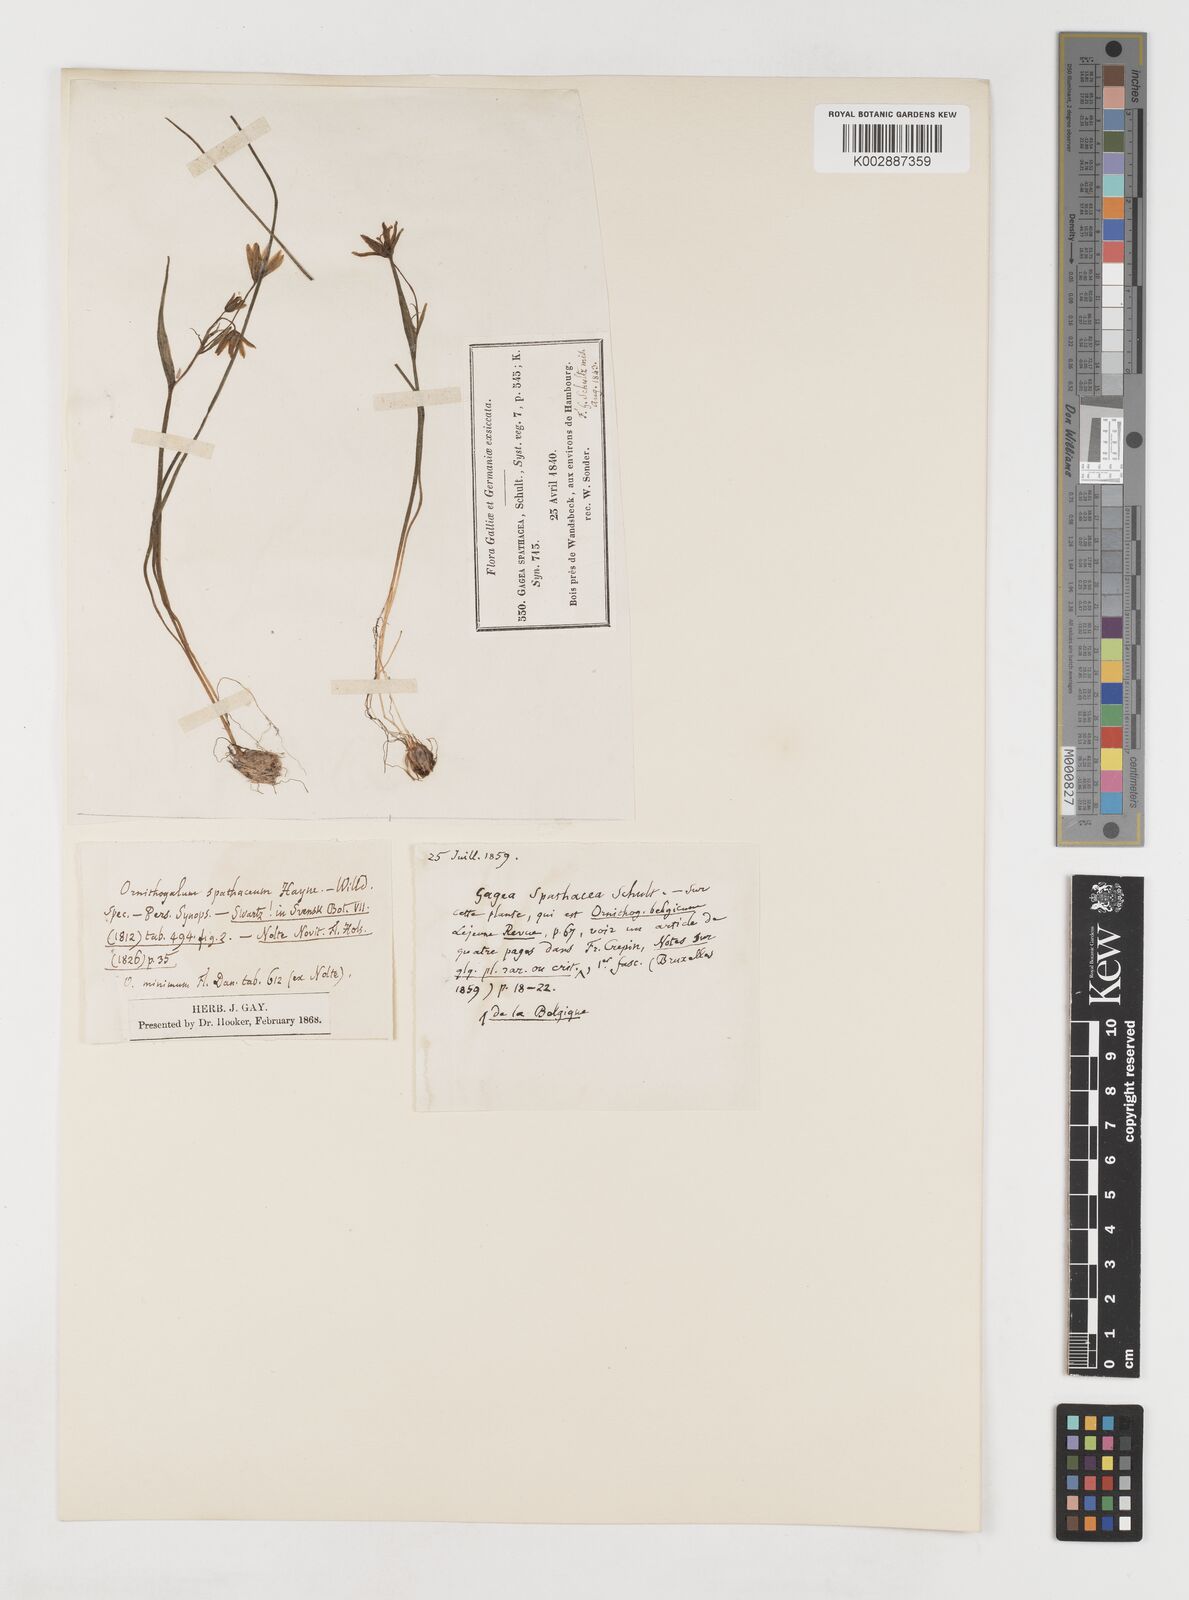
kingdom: Plantae
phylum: Tracheophyta
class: Liliopsida
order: Liliales
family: Liliaceae
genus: Gagea
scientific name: Gagea spathacea
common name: Belgian gagea
